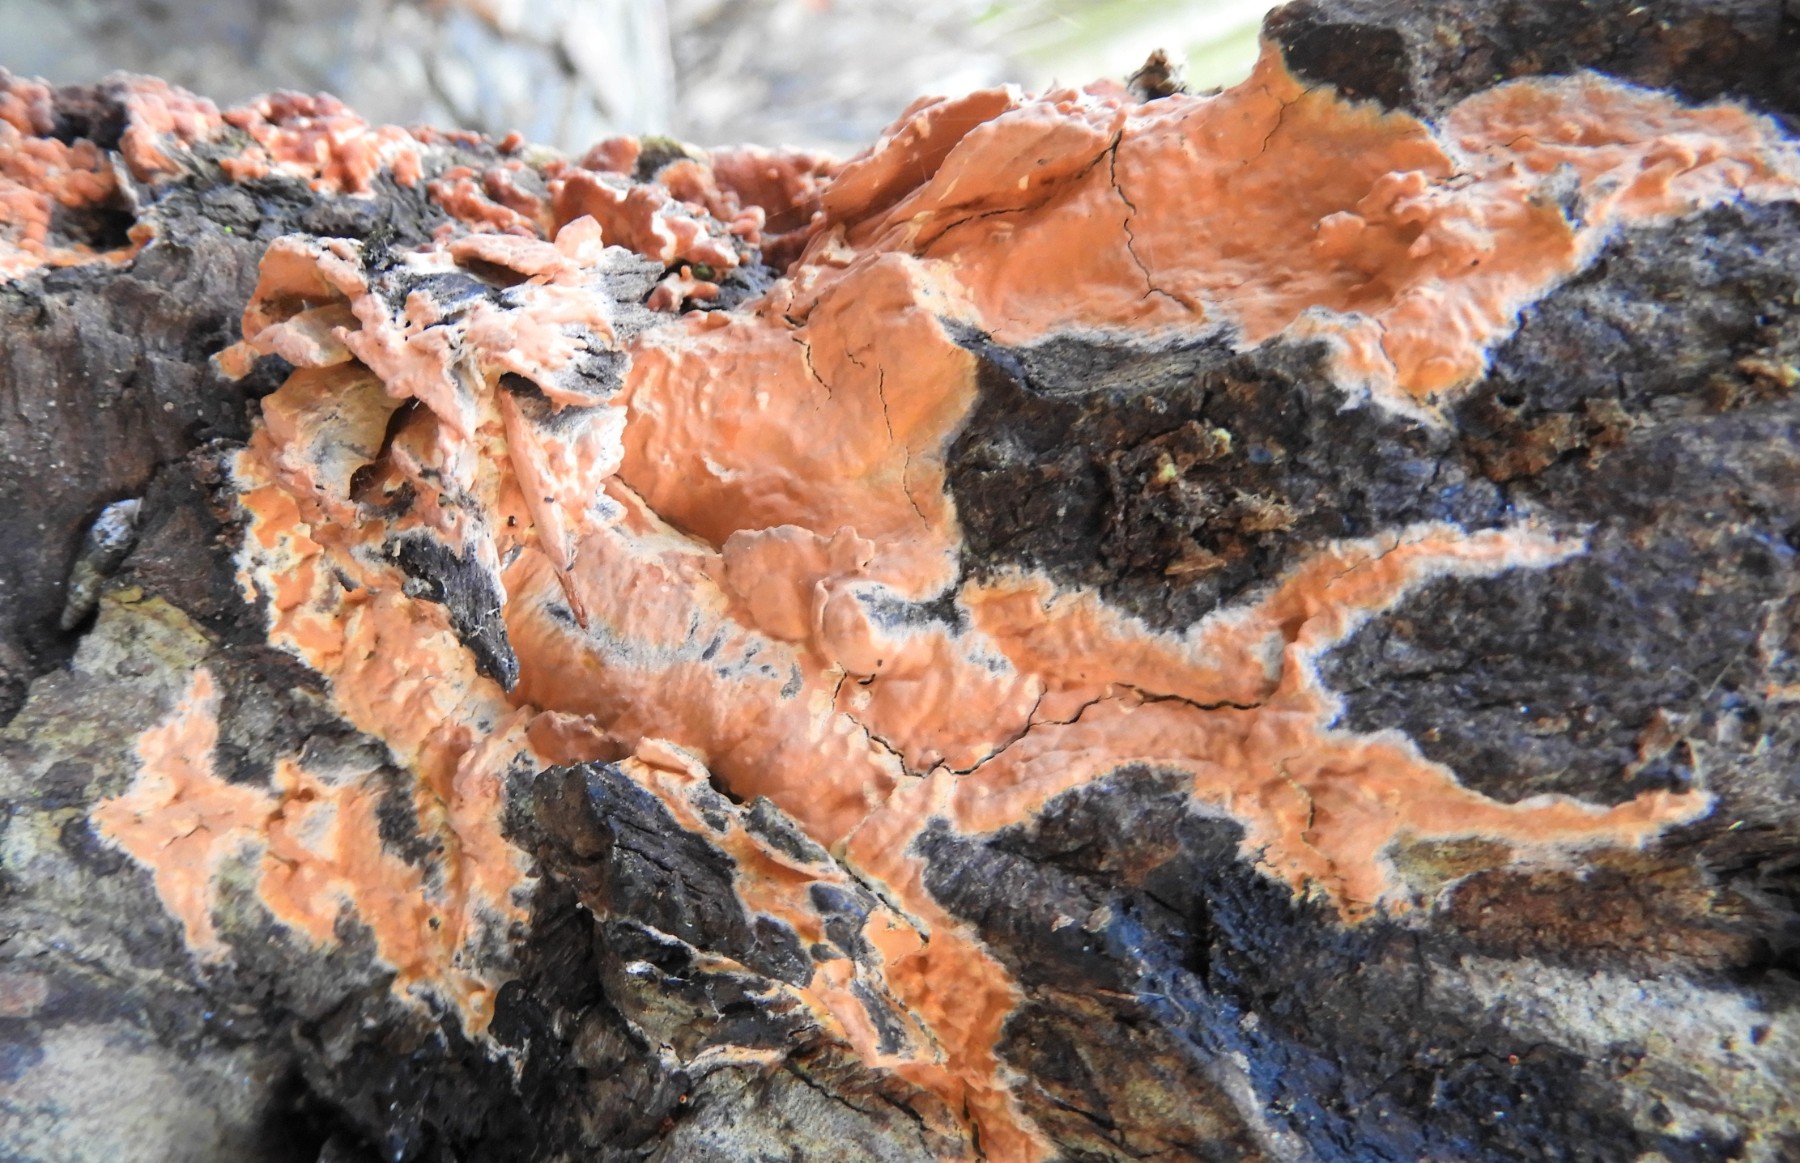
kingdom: Fungi
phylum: Basidiomycota
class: Agaricomycetes
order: Russulales
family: Peniophoraceae
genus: Peniophora
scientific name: Peniophora incarnata
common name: laksefarvet voksskind
